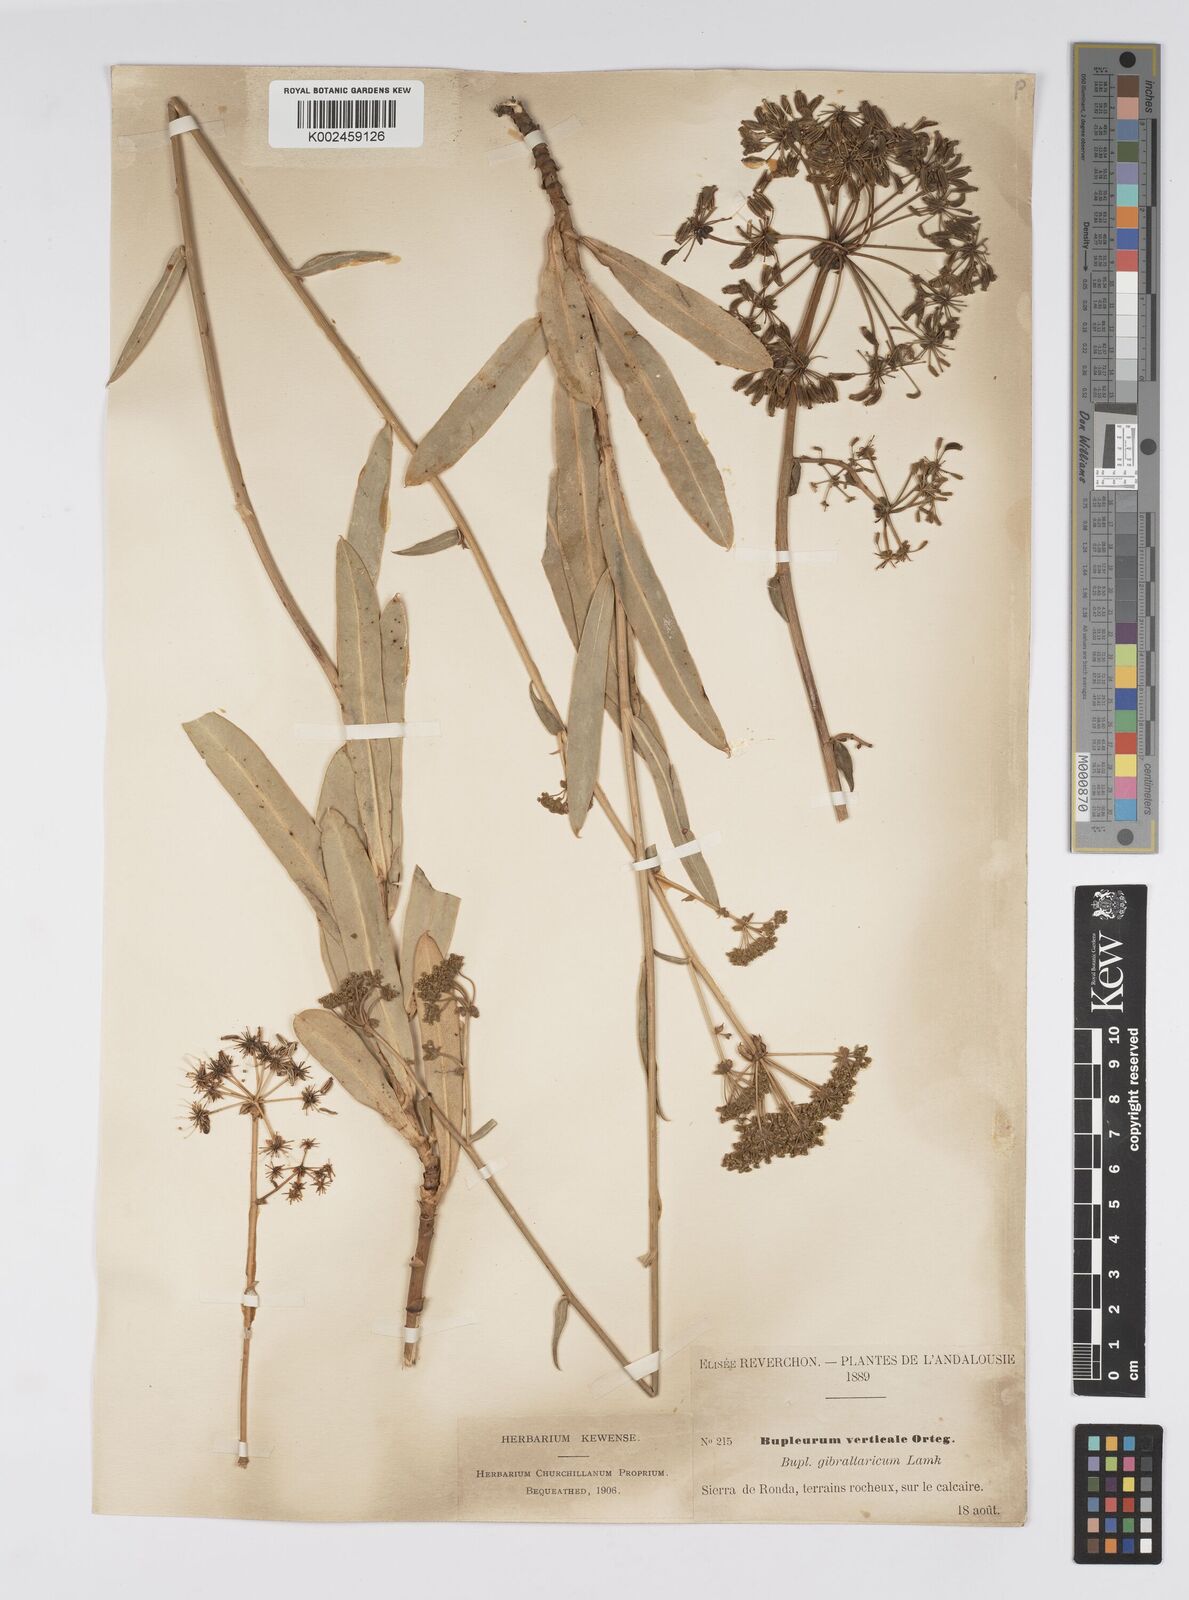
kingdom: Plantae
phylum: Tracheophyta
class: Magnoliopsida
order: Apiales
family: Apiaceae
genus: Bupleurum
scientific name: Bupleurum gibraltaricum
